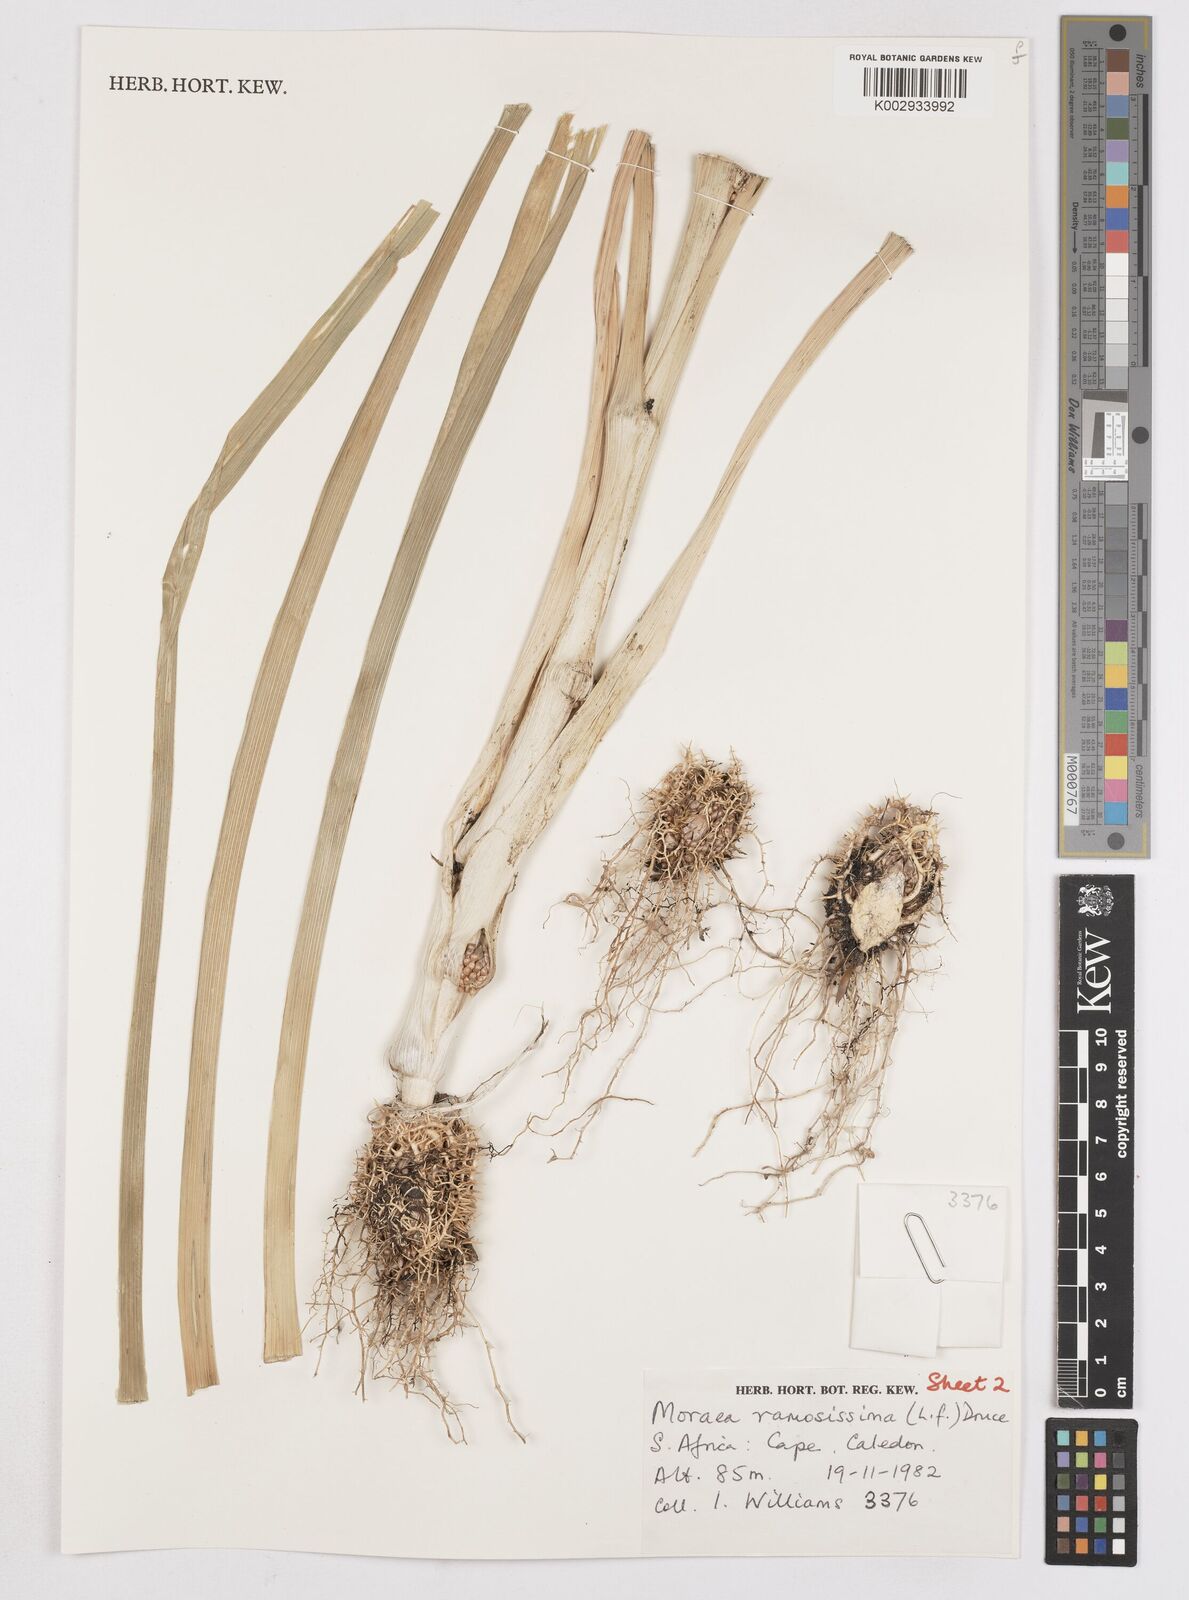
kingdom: Plantae
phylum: Tracheophyta
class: Liliopsida
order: Asparagales
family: Iridaceae
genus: Moraea
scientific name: Moraea ramosissima
